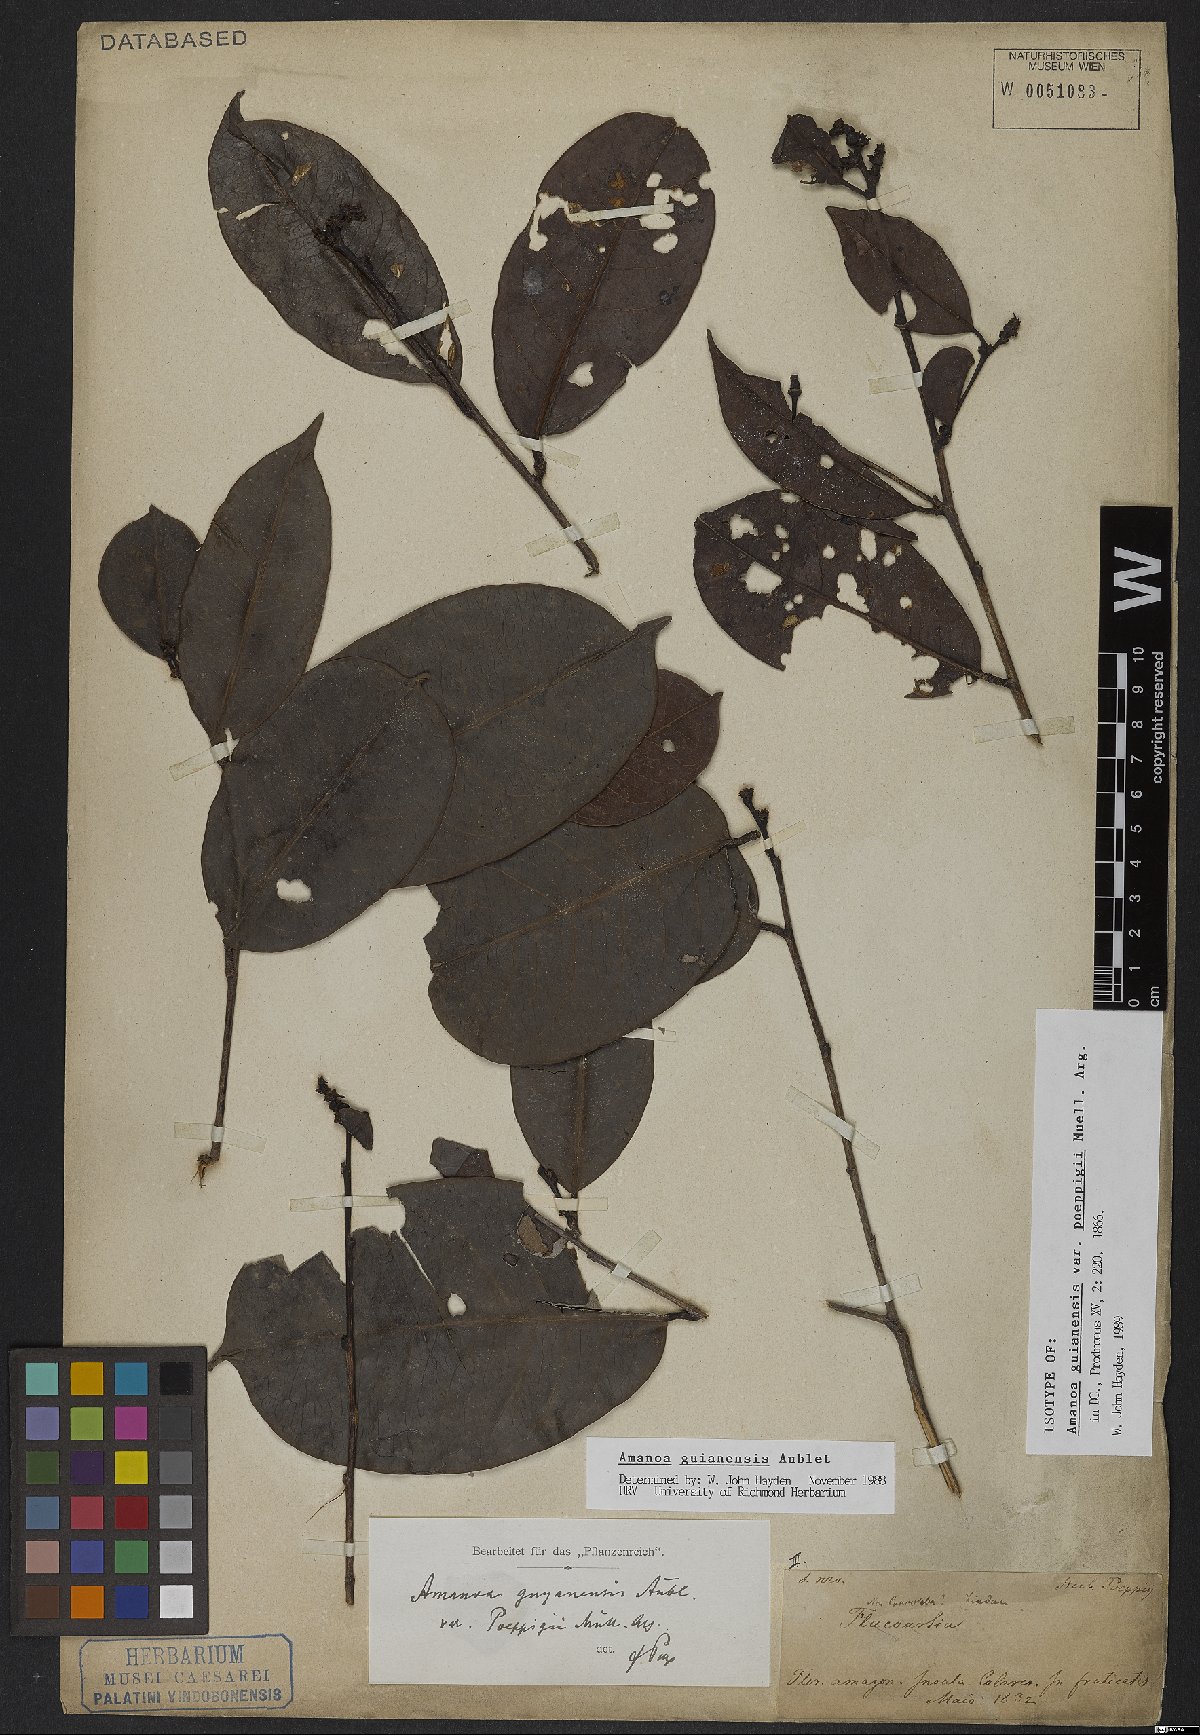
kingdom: Plantae
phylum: Tracheophyta
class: Magnoliopsida
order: Malpighiales
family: Phyllanthaceae
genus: Amanoa
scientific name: Amanoa guianensis
